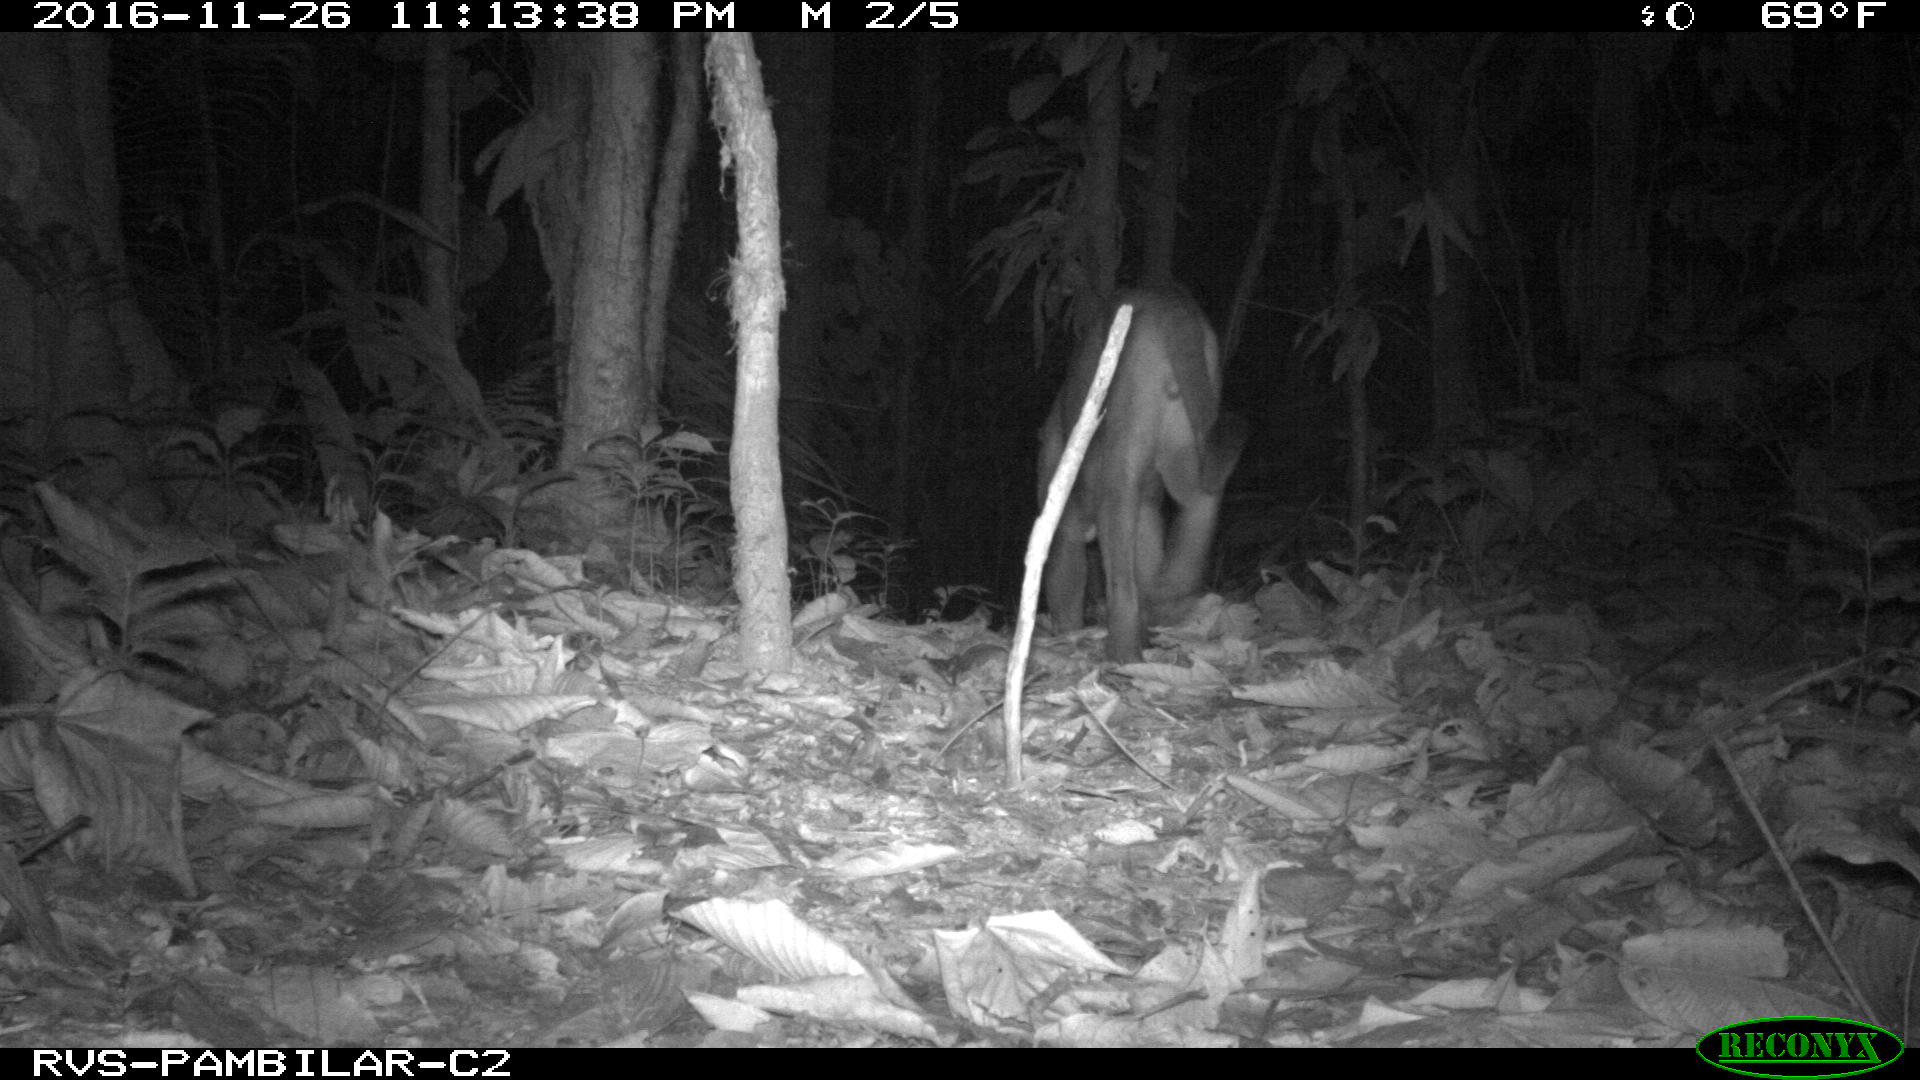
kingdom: Animalia
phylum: Chordata
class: Mammalia
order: Carnivora
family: Felidae
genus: Puma
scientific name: Puma concolor
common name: Puma
